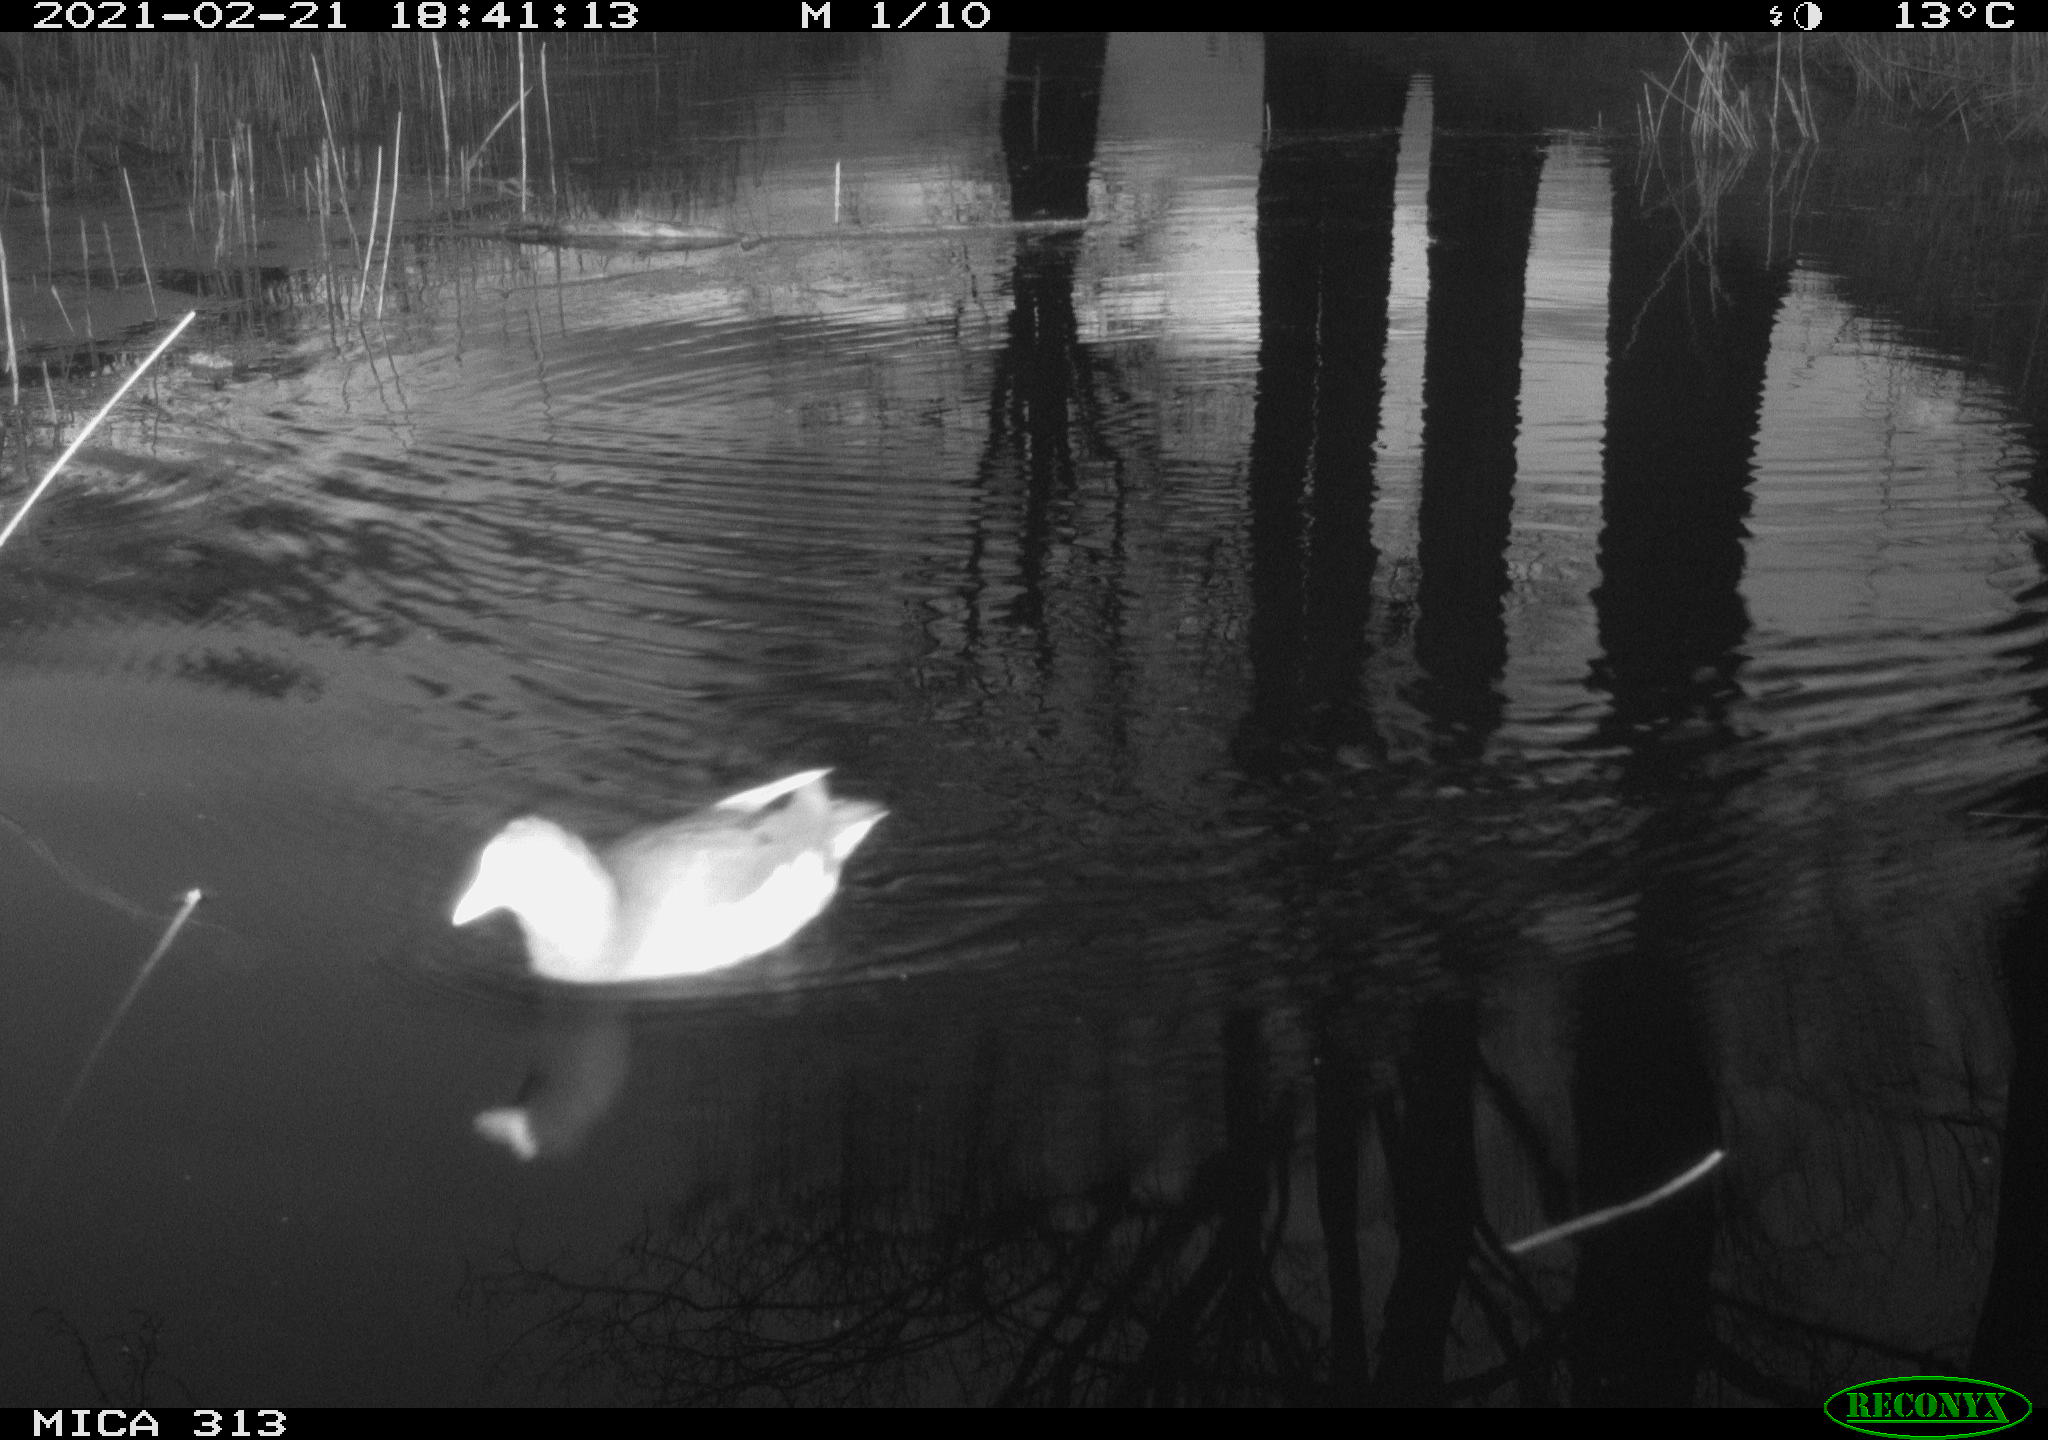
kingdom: Animalia
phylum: Chordata
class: Aves
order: Gruiformes
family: Rallidae
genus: Gallinula
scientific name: Gallinula chloropus
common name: Common moorhen
